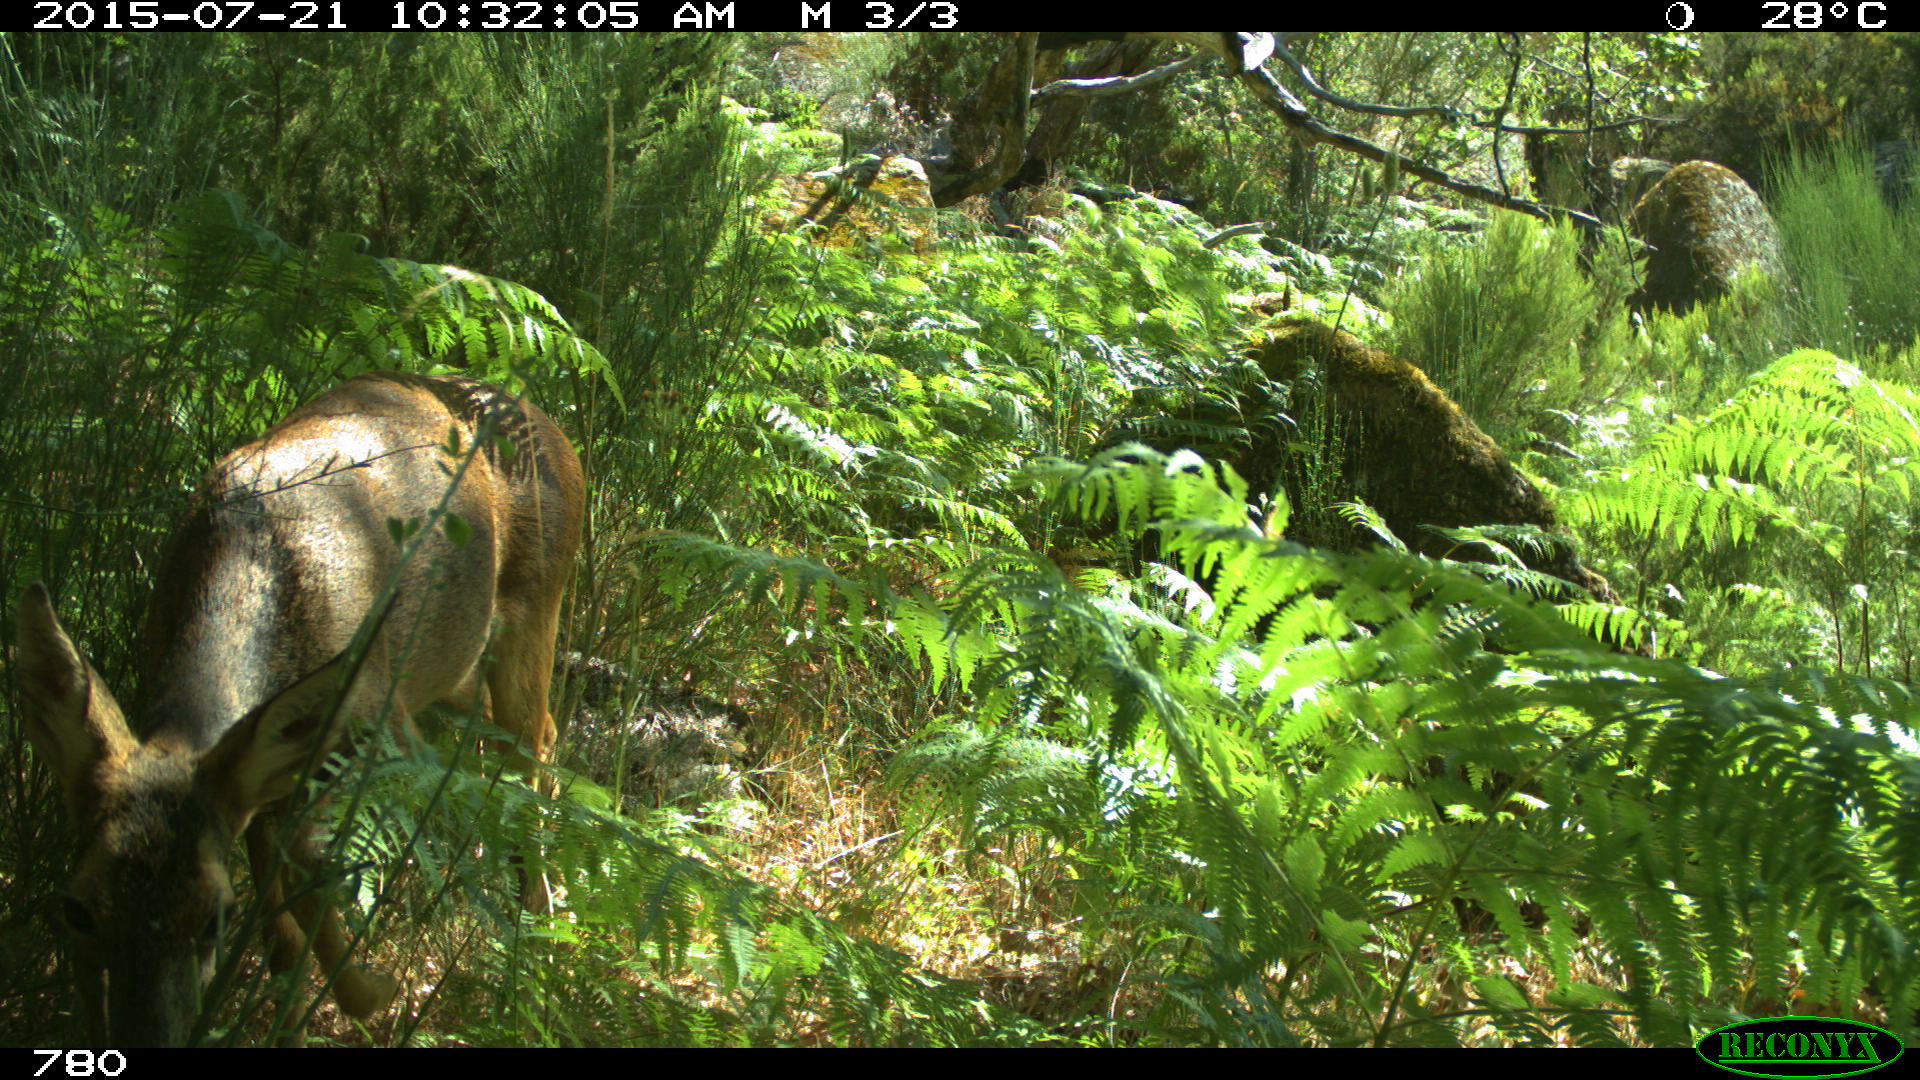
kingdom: Animalia
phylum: Chordata
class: Mammalia
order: Artiodactyla
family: Cervidae
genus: Capreolus
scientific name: Capreolus capreolus
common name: Western roe deer
